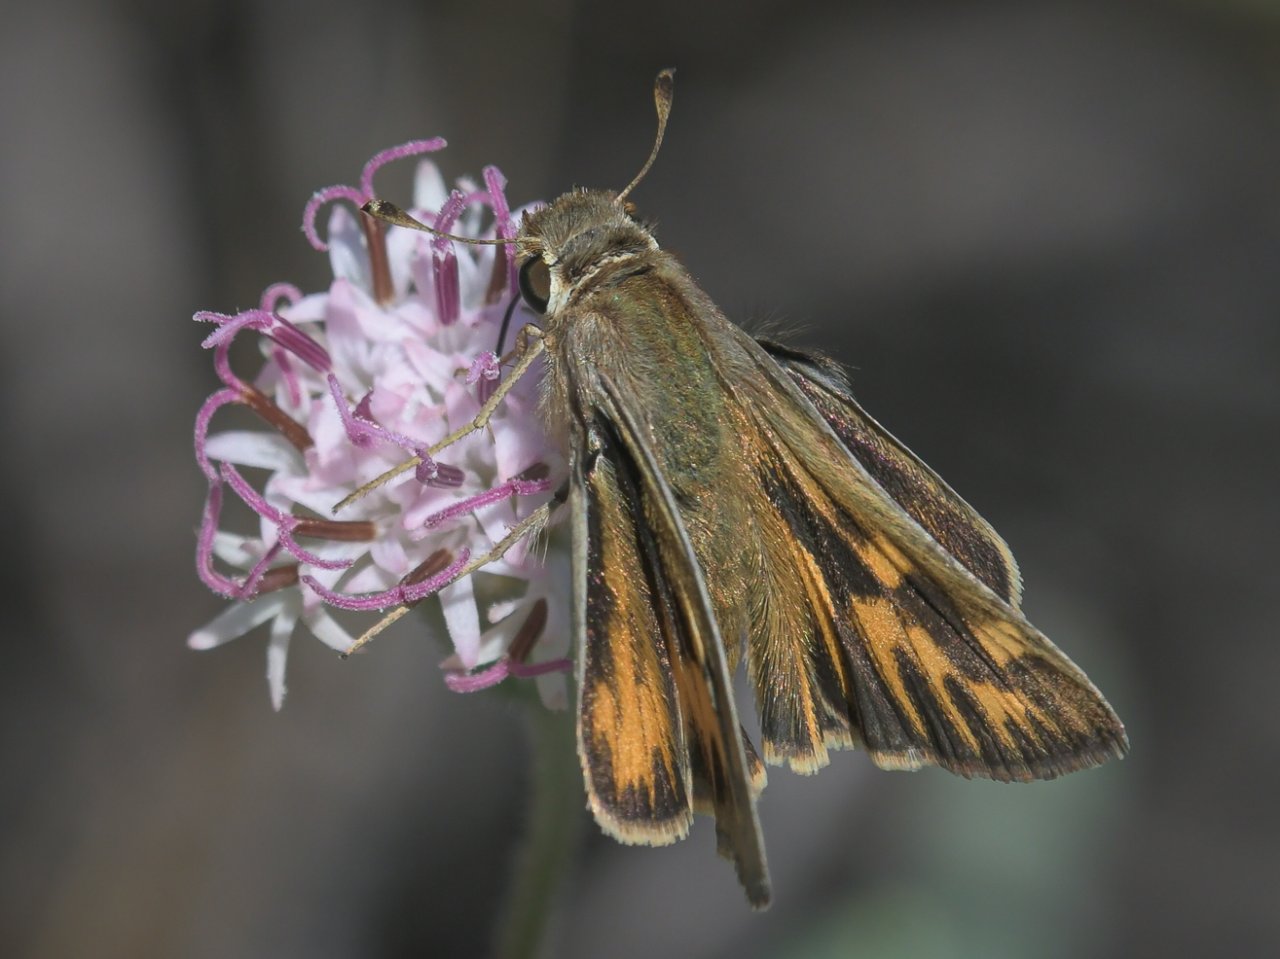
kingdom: Animalia
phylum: Arthropoda
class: Insecta
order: Lepidoptera
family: Hesperiidae
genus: Hylephila
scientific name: Hylephila phyleus
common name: Fiery Skipper
